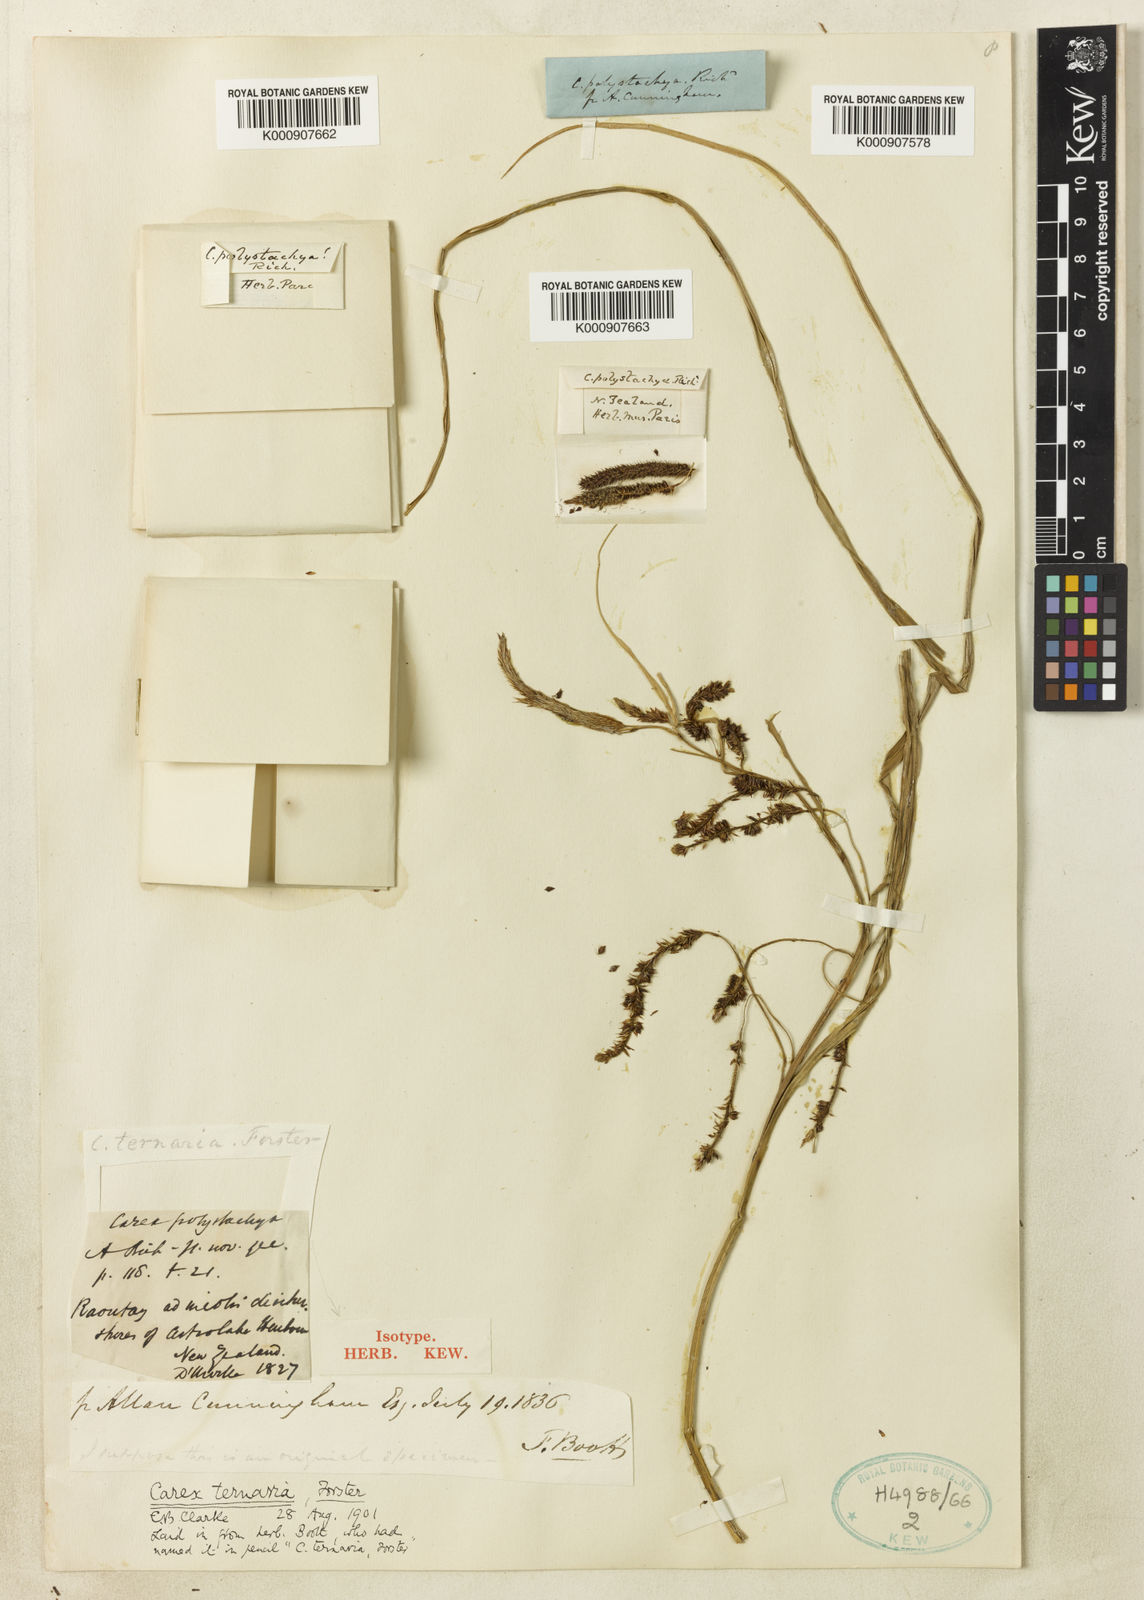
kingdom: Plantae
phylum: Tracheophyta
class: Liliopsida
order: Poales
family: Cyperaceae
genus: Carex
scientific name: Carex lessoniana
